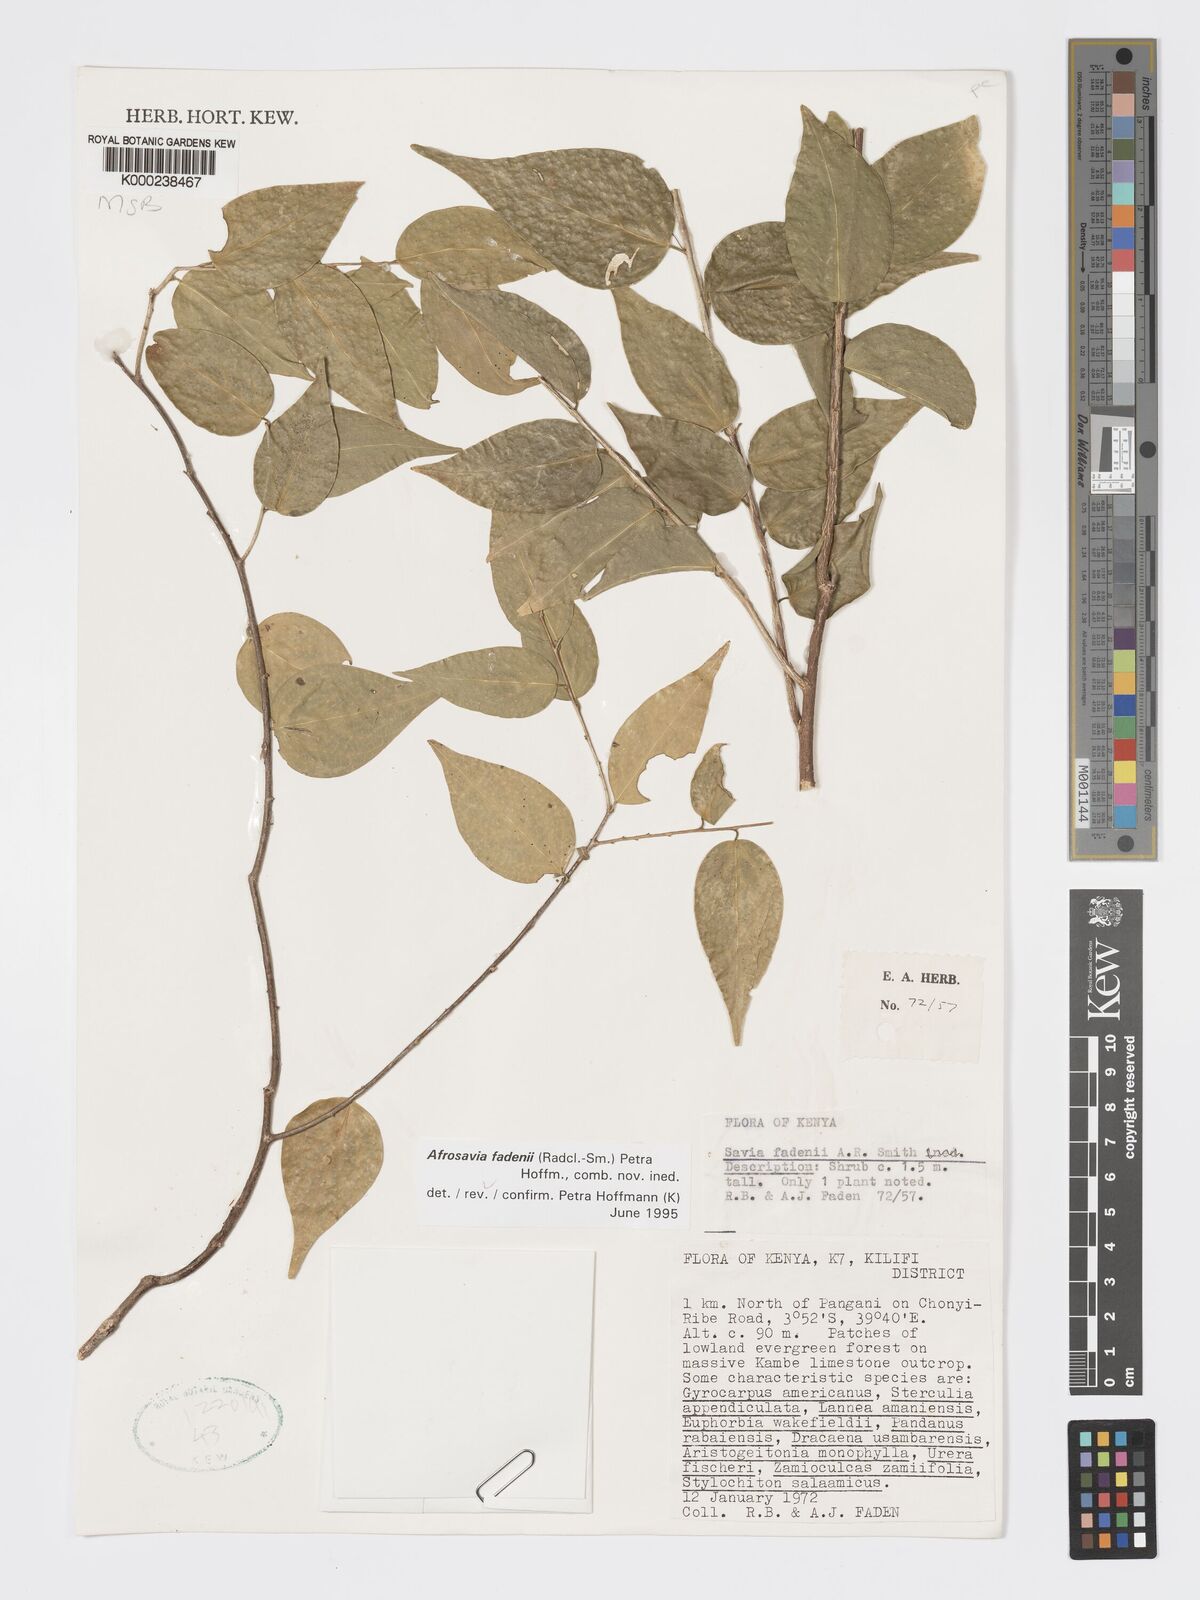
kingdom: Plantae
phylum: Tracheophyta
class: Magnoliopsida
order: Malpighiales
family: Phyllanthaceae
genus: Wielandia
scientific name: Wielandia fadenii
